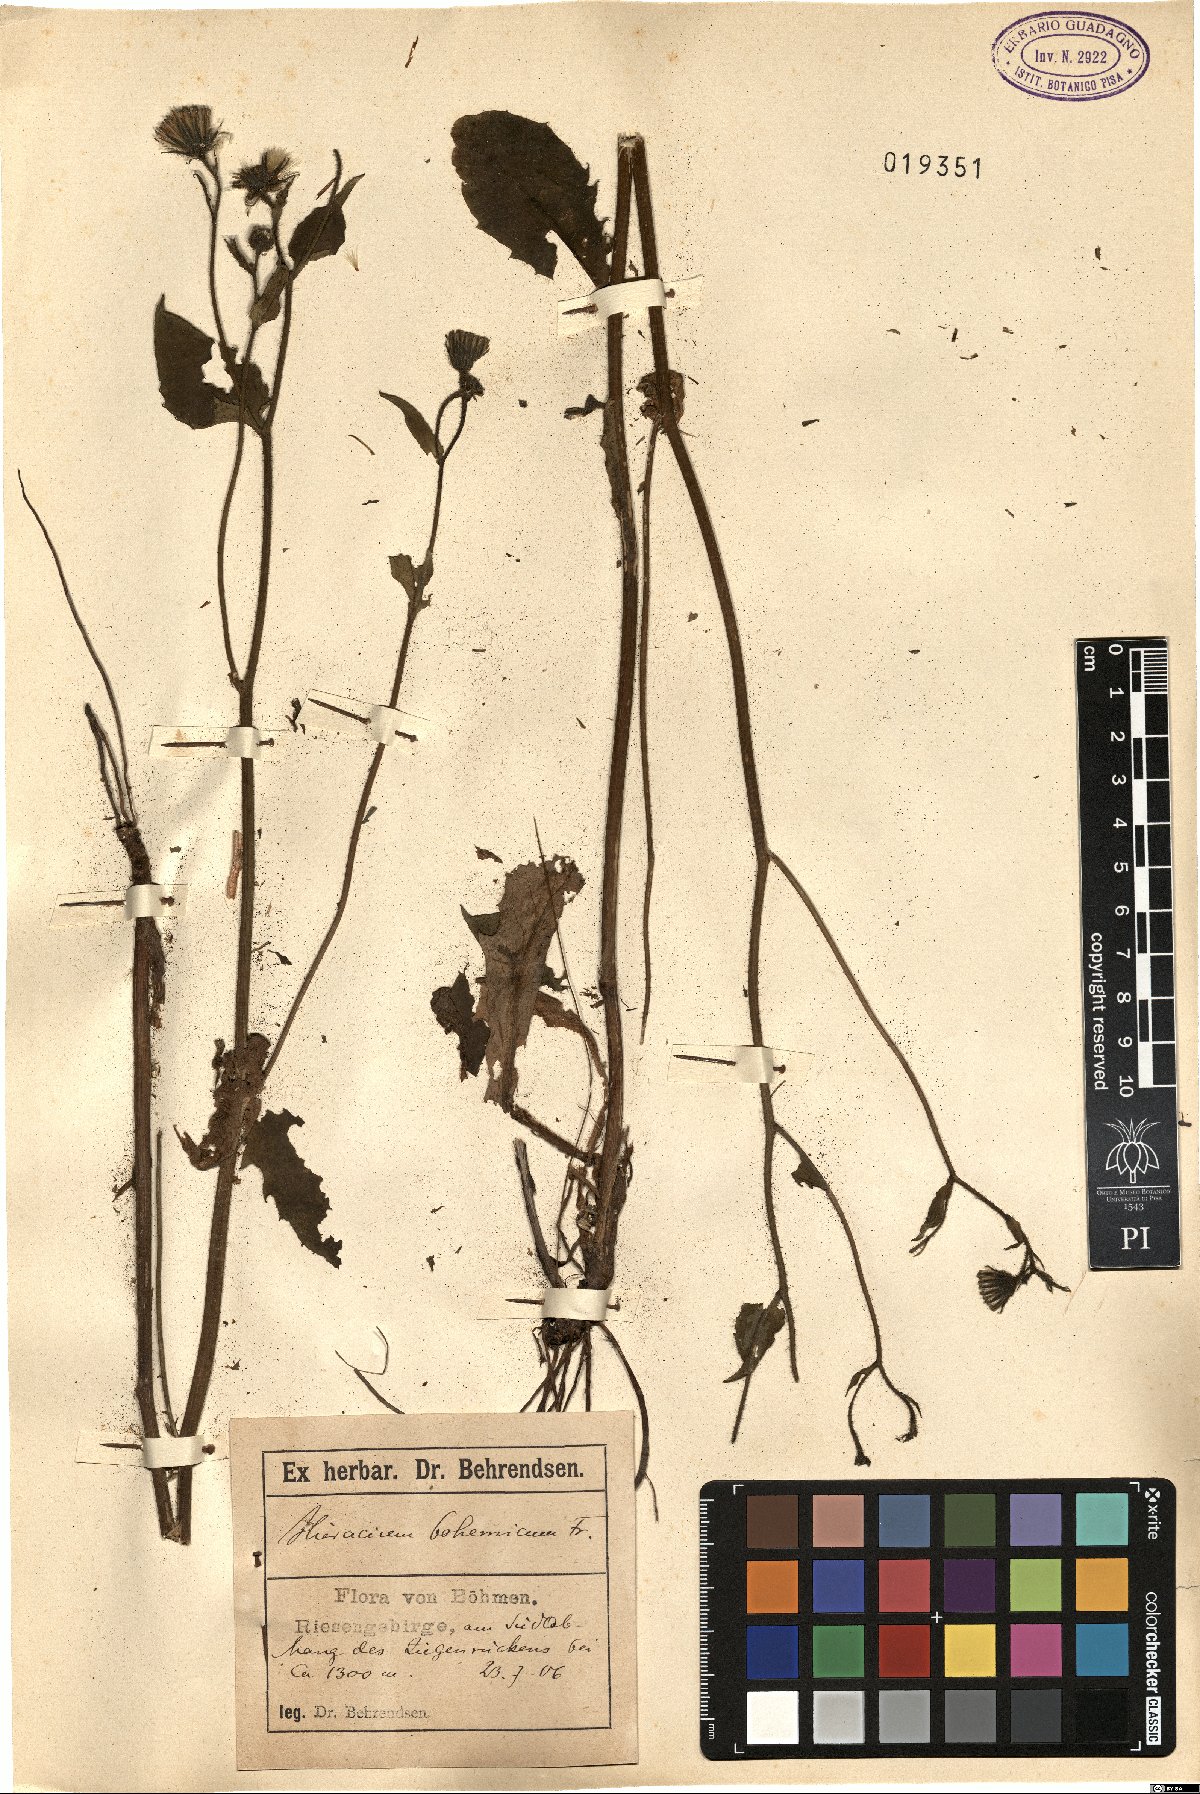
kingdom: Plantae
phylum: Tracheophyta
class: Magnoliopsida
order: Asterales
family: Asteraceae
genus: Hieracium
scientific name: Hieracium sudeticum
